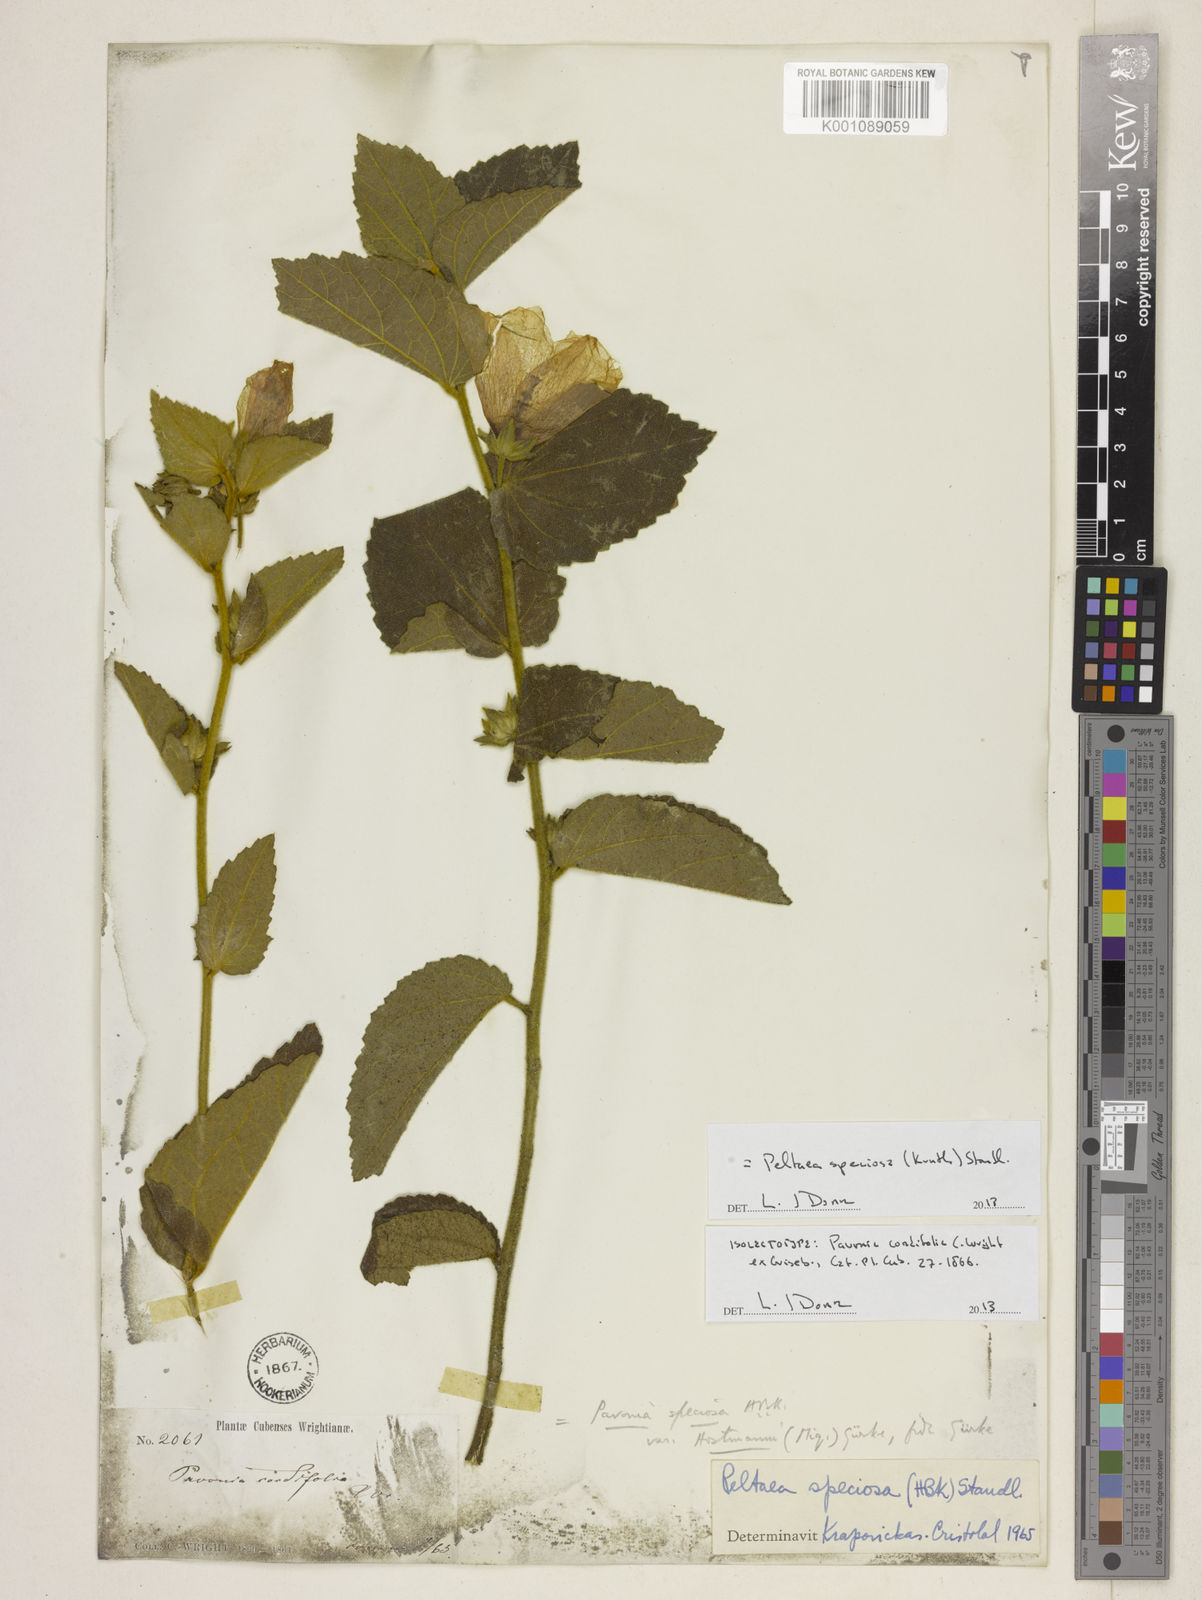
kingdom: Plantae
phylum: Tracheophyta
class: Magnoliopsida
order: Malvales
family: Malvaceae
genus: Peltaea
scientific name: Peltaea speciosa
